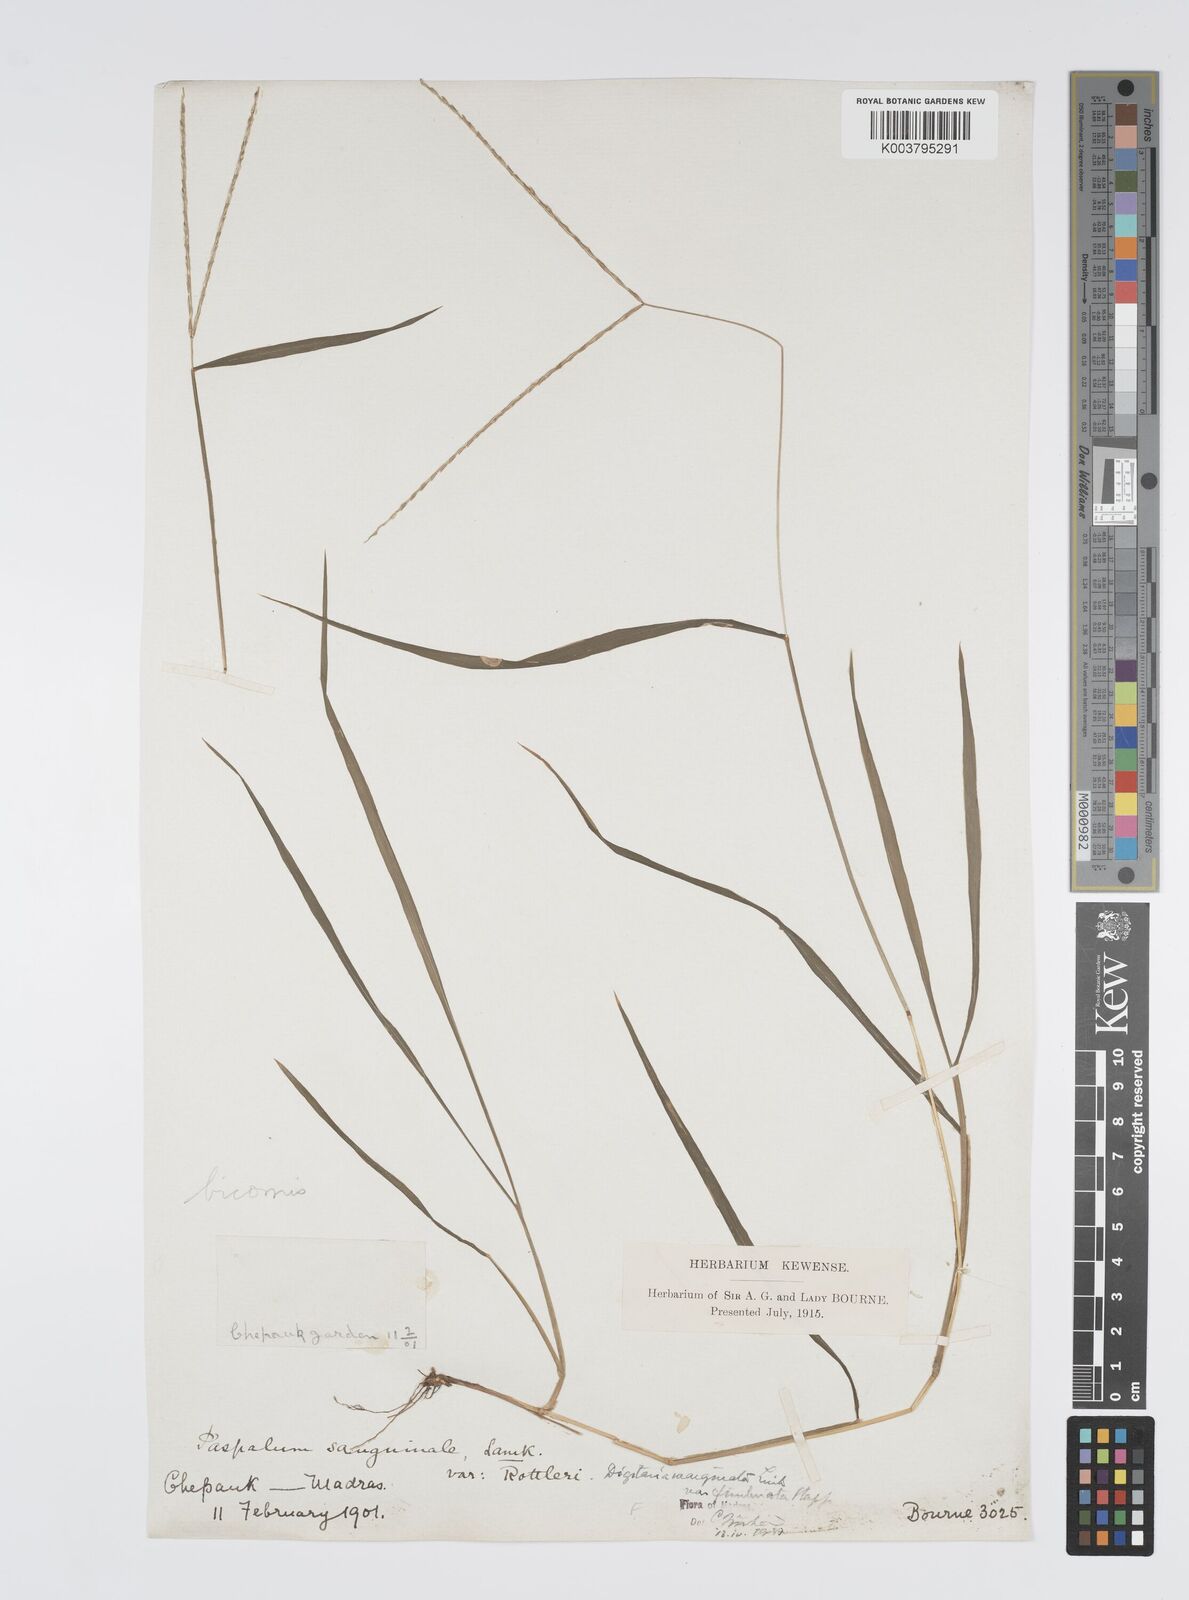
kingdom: Plantae
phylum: Tracheophyta
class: Liliopsida
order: Poales
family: Poaceae
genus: Digitaria
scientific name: Digitaria spec
